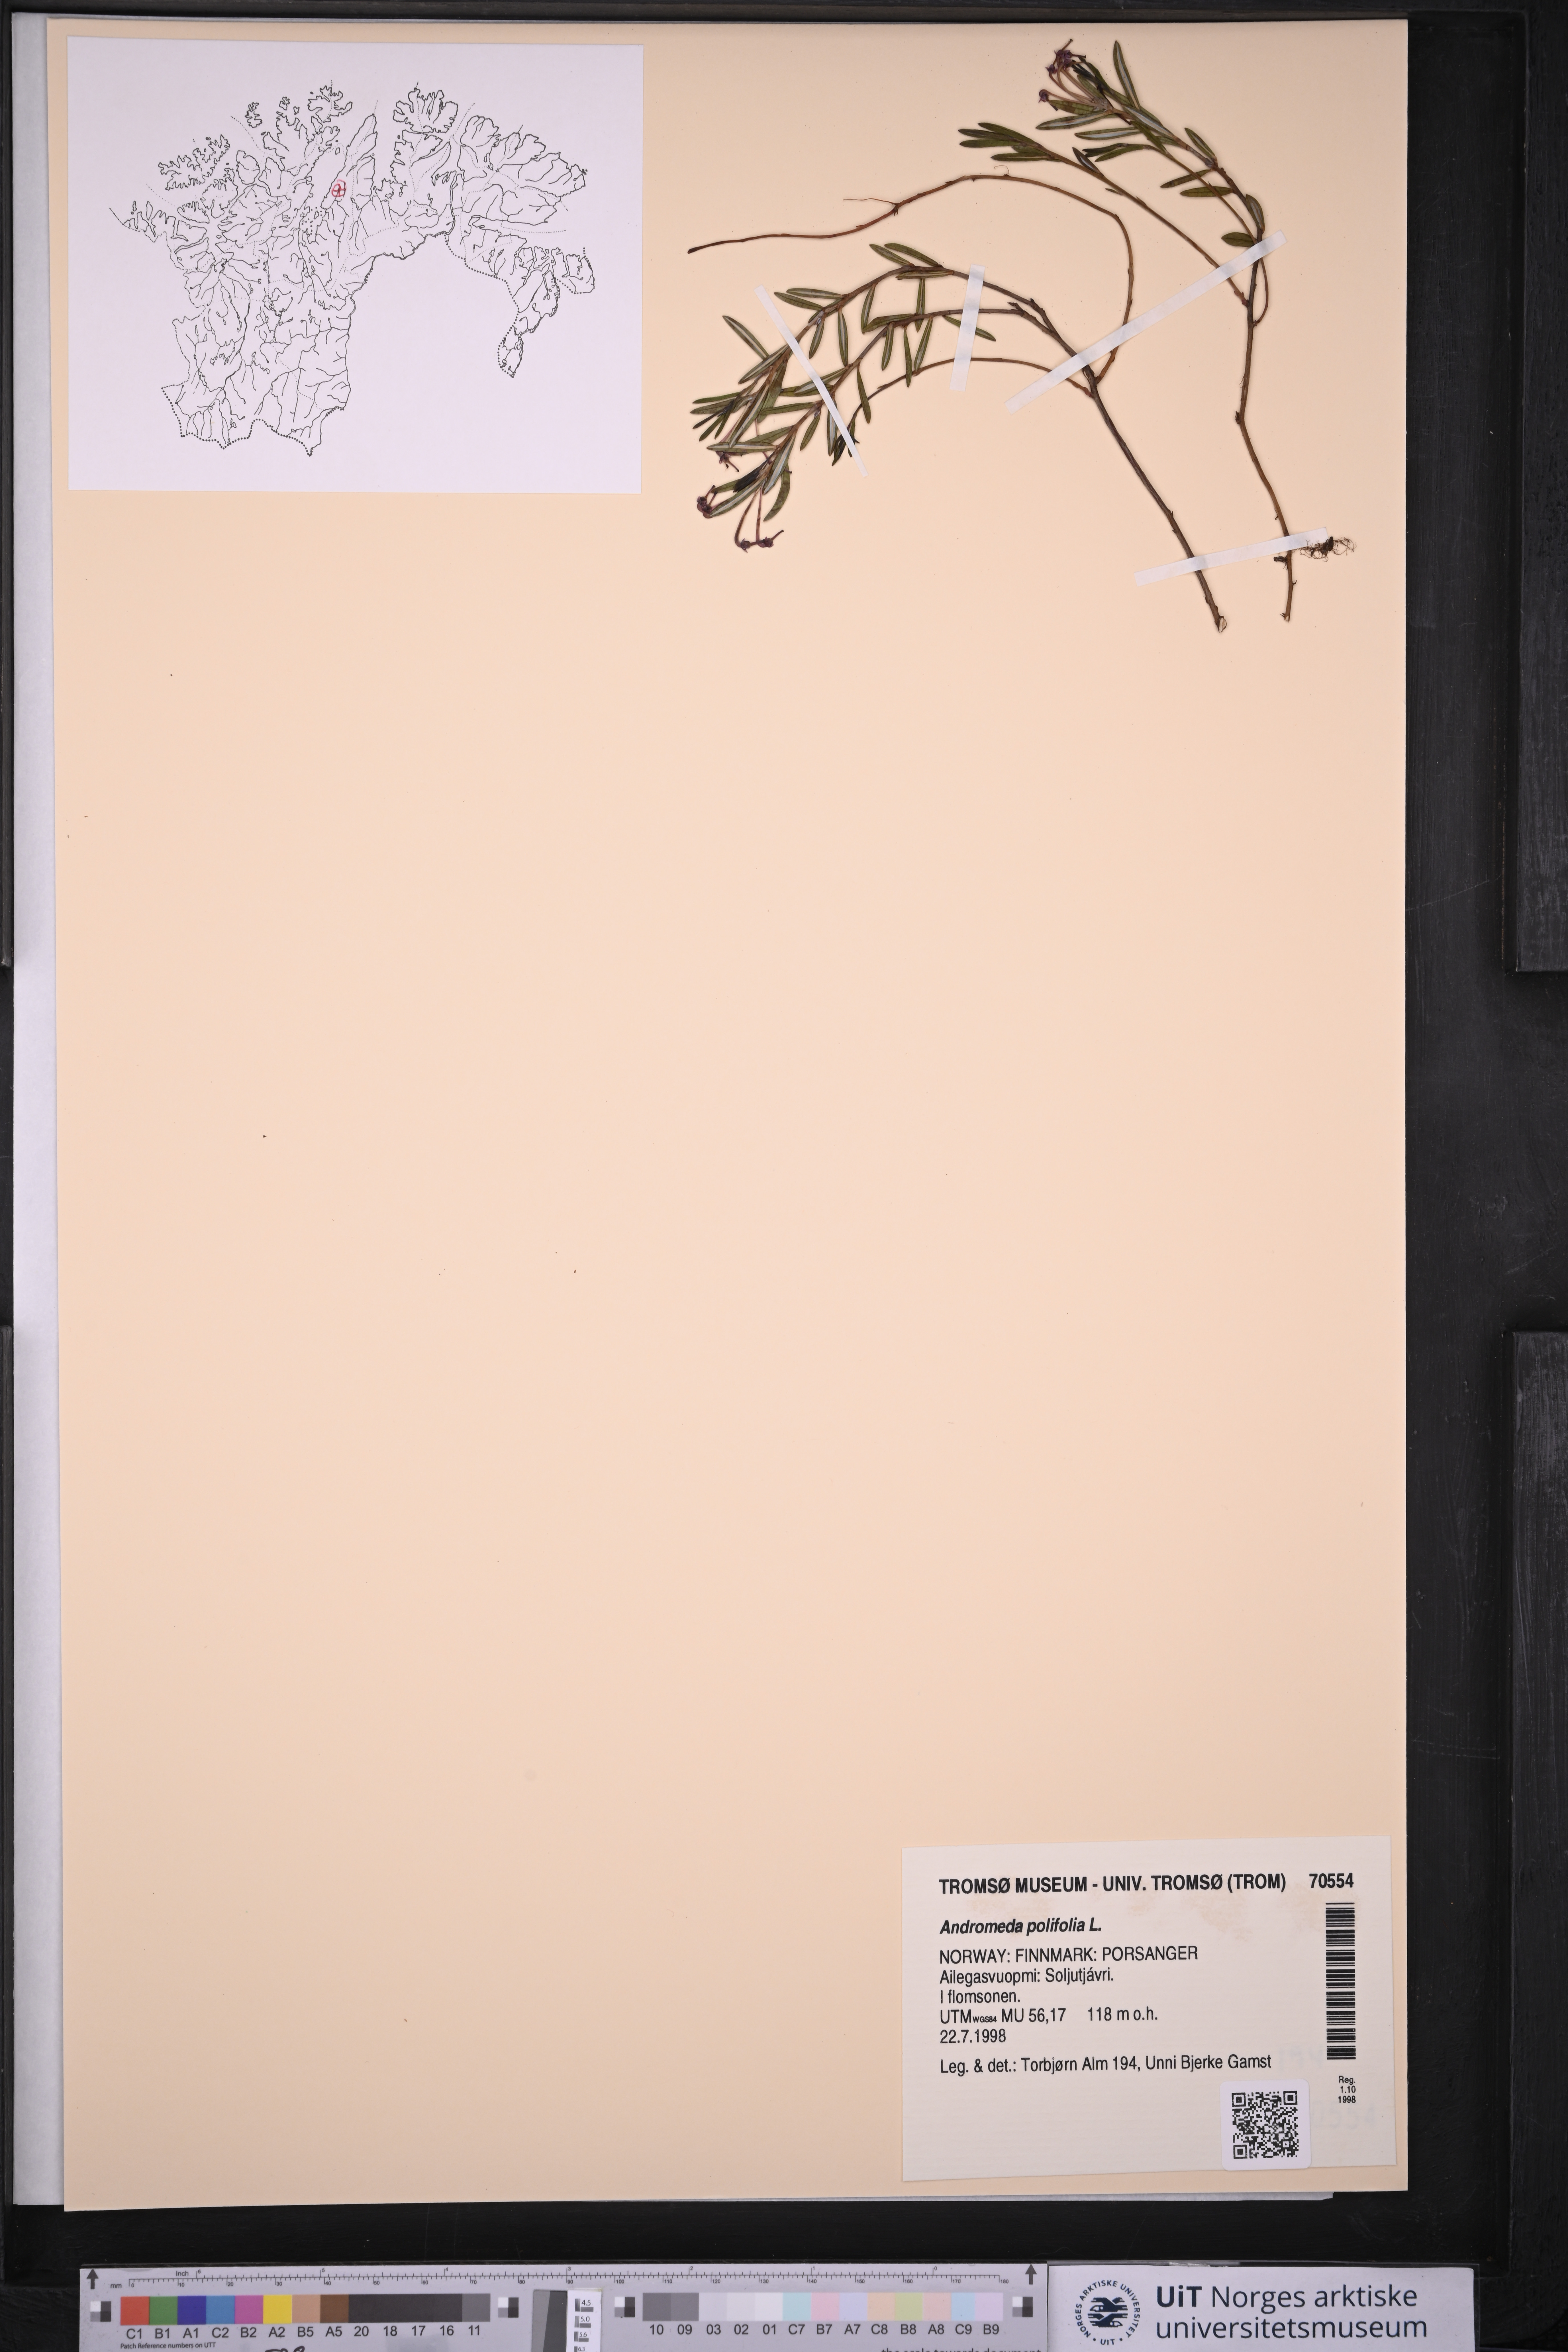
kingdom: Plantae
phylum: Tracheophyta
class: Magnoliopsida
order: Ericales
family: Ericaceae
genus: Andromeda
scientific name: Andromeda polifolia
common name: Bog-rosemary
